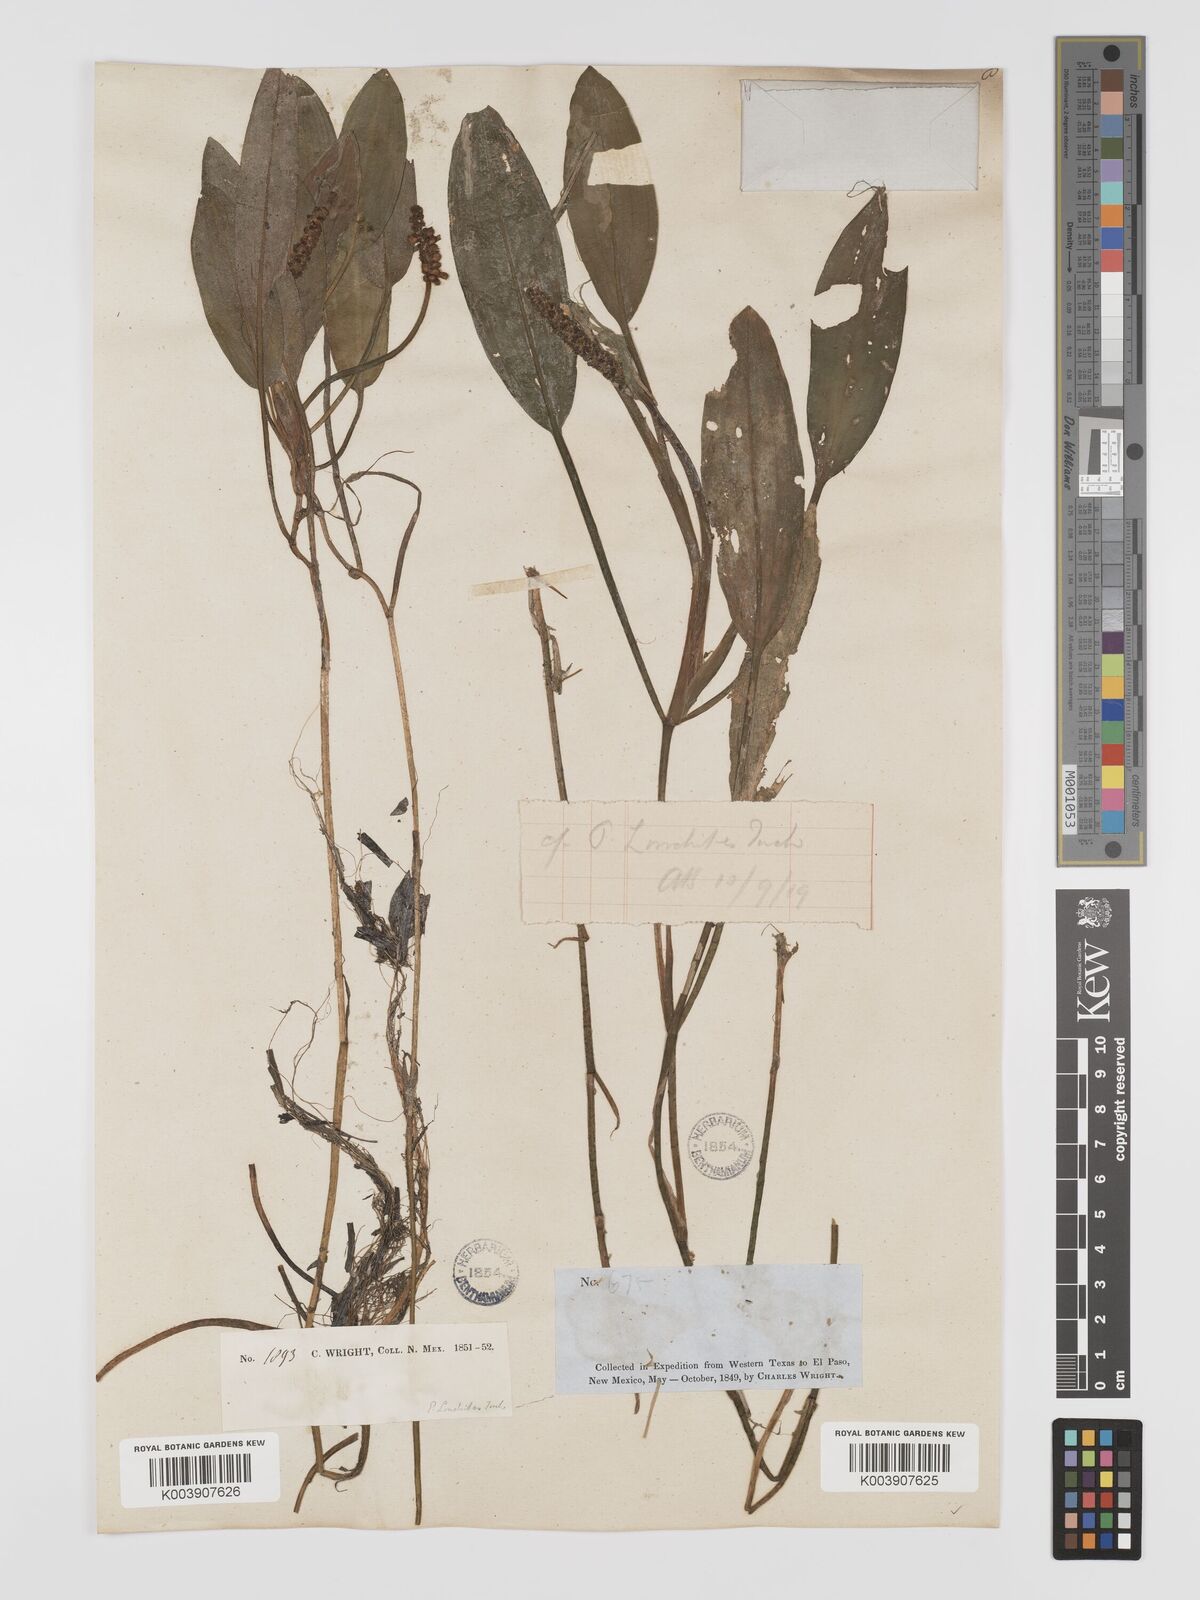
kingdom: Plantae
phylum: Tracheophyta
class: Liliopsida
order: Alismatales
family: Potamogetonaceae
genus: Potamogeton
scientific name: Potamogeton nodosus
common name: Loddon pondweed
